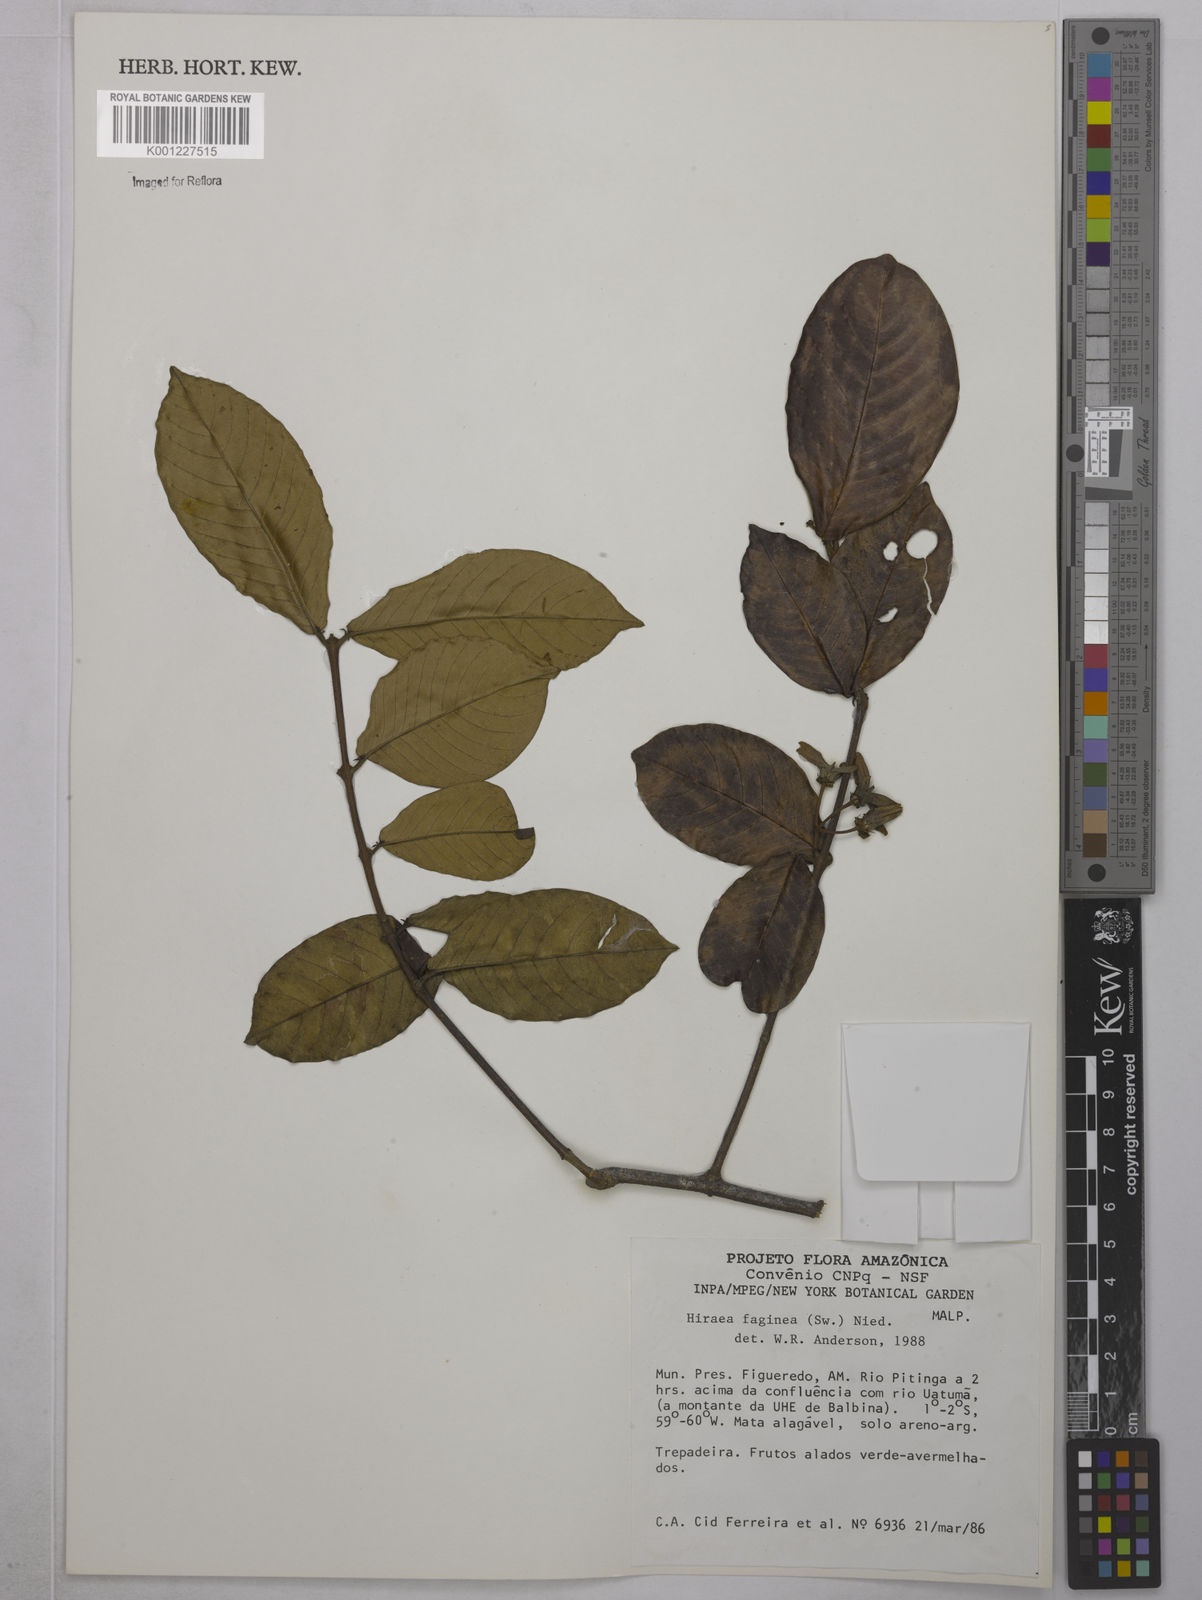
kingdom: Plantae
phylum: Tracheophyta
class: Magnoliopsida
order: Malpighiales
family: Malpighiaceae
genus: Hiraea
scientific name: Hiraea faginea
